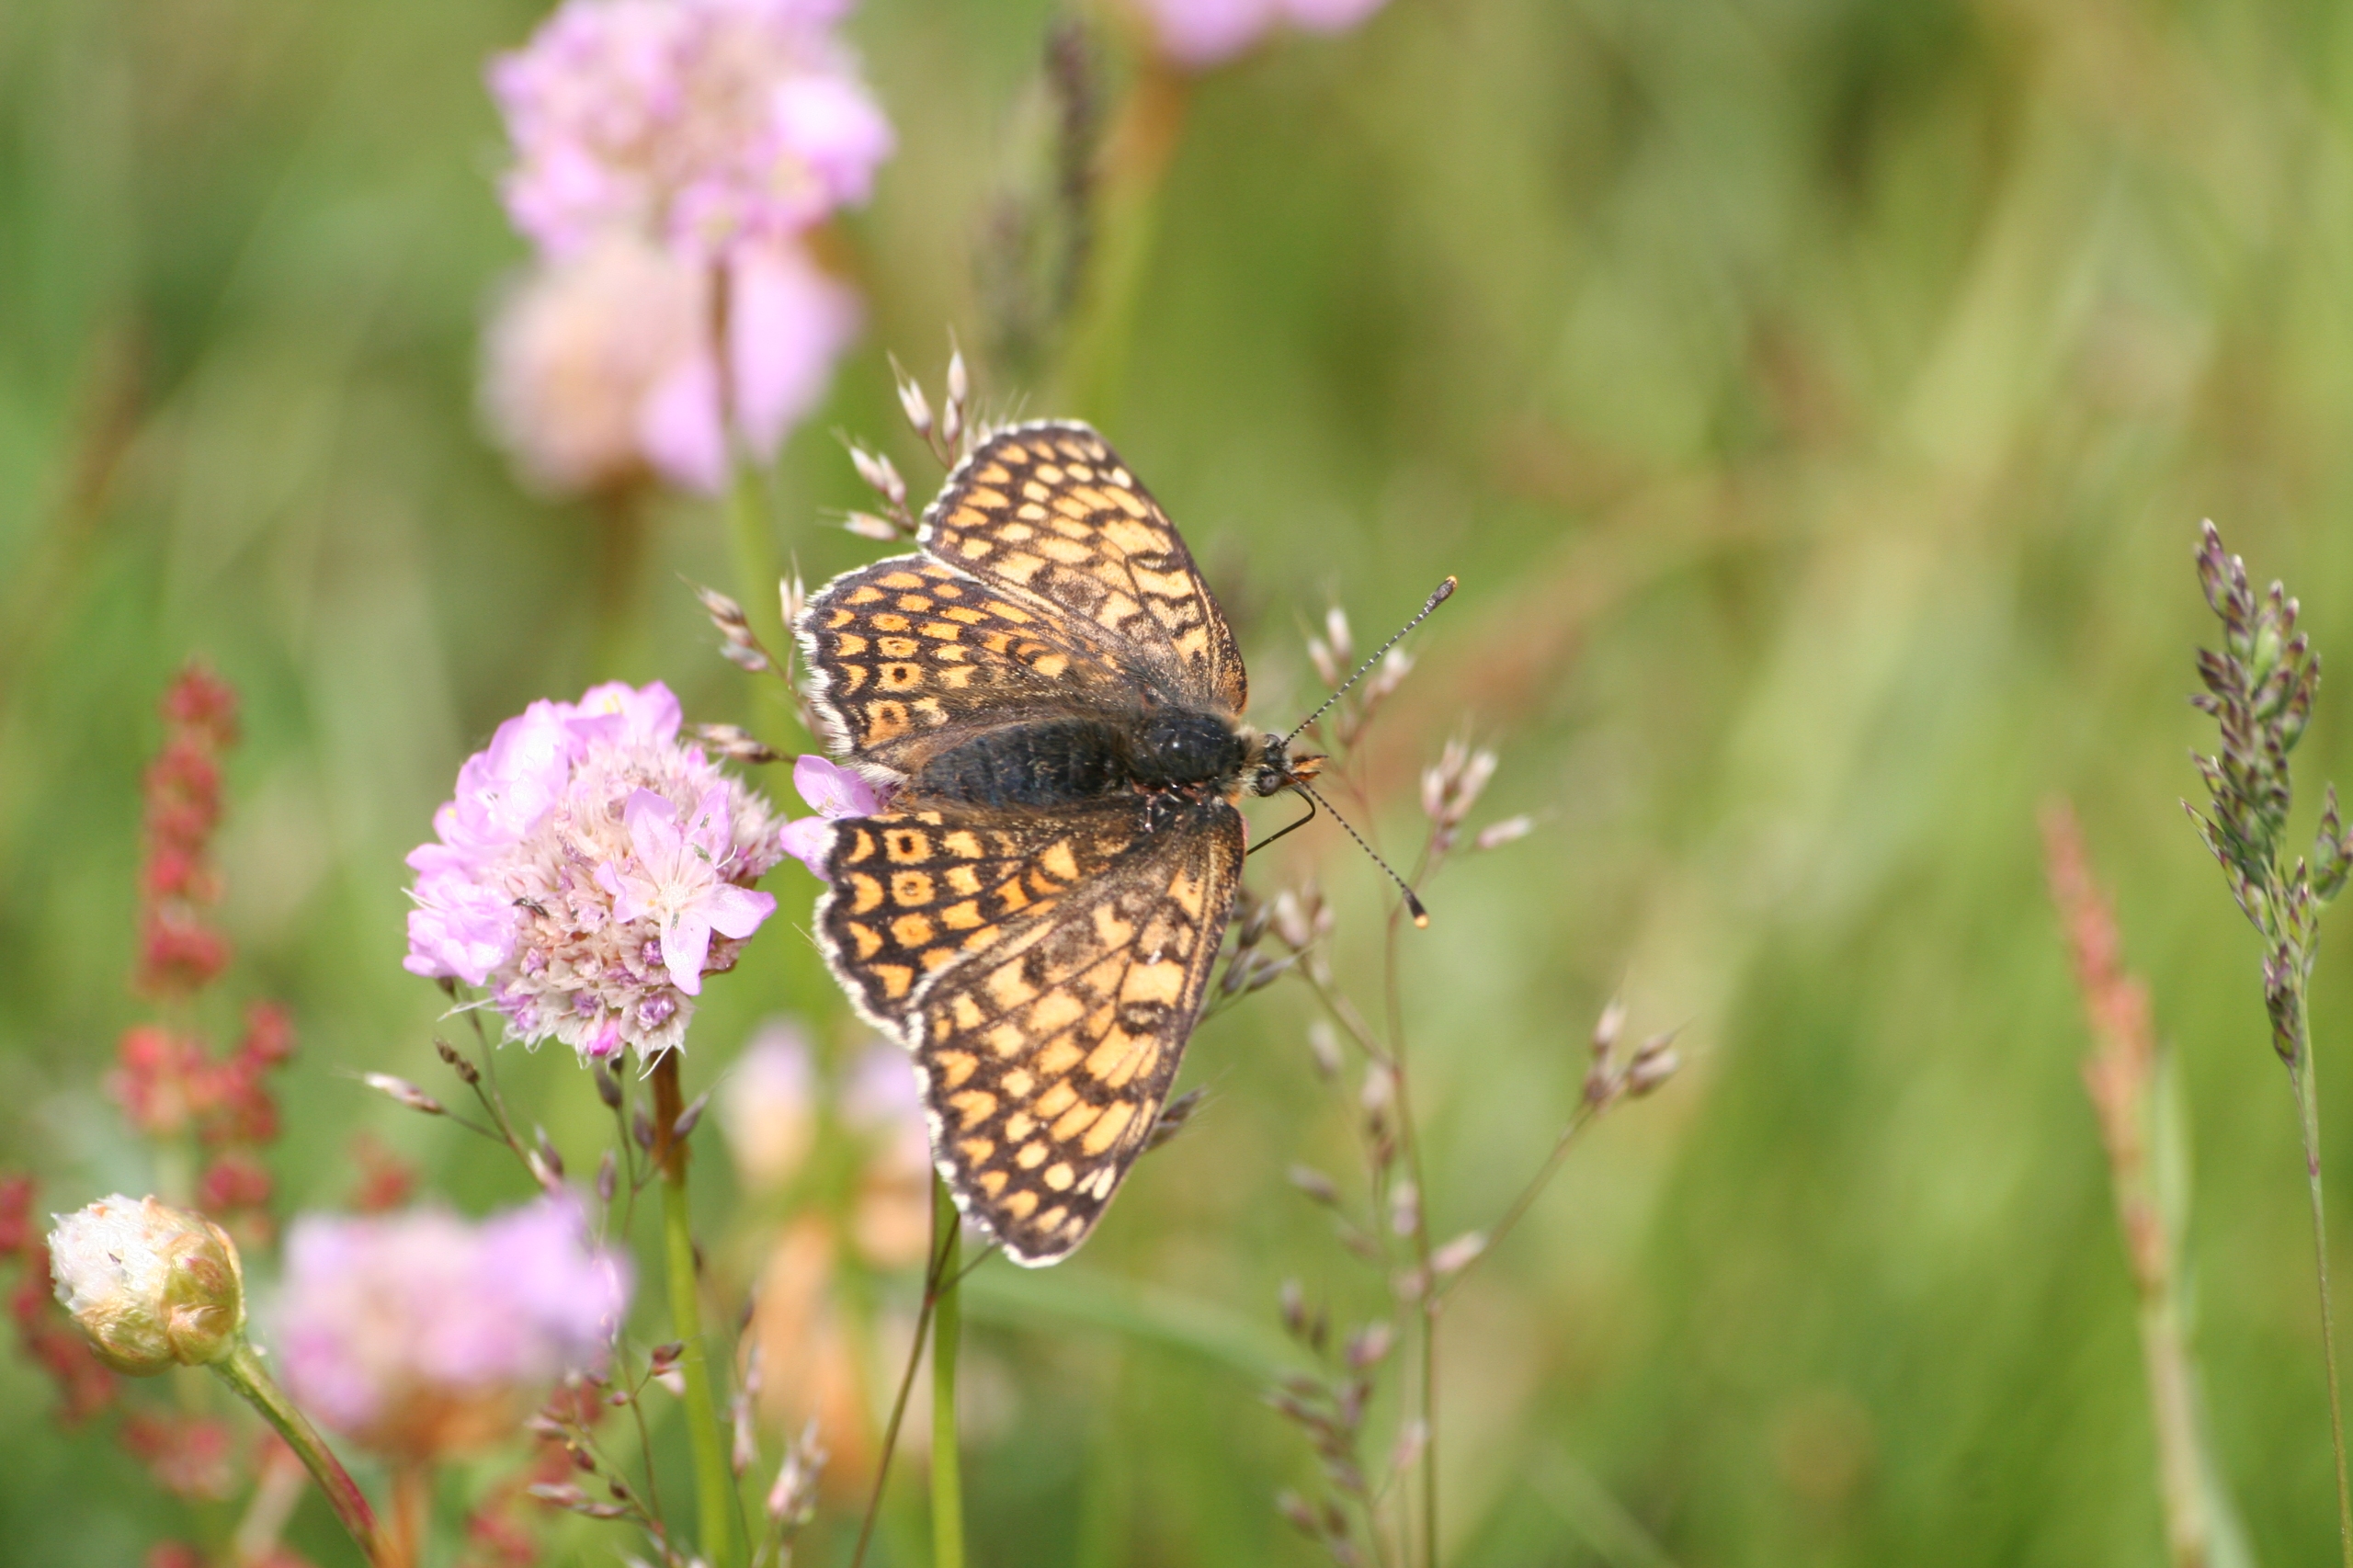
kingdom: Animalia
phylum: Arthropoda
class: Insecta
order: Lepidoptera
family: Nymphalidae
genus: Melitaea
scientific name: Melitaea cinxia
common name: Okkergul pletvinge
